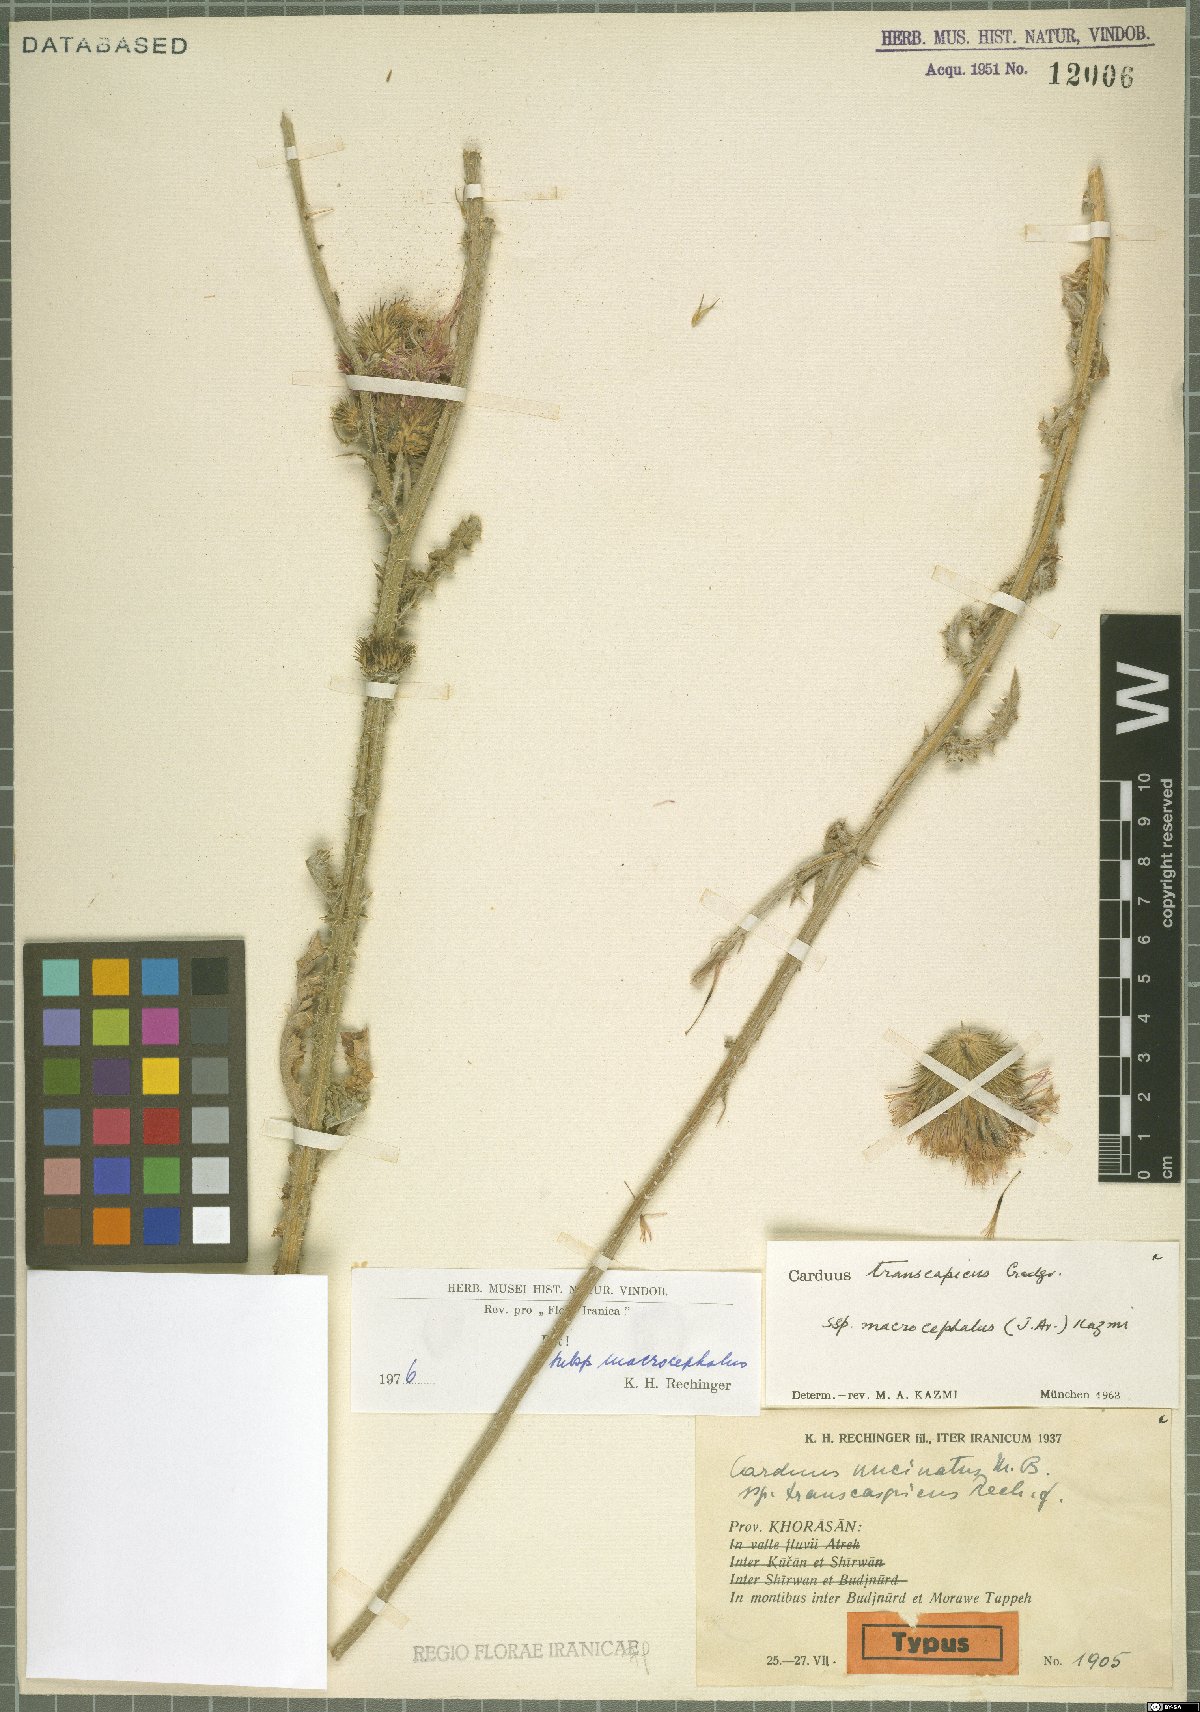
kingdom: Plantae
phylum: Tracheophyta
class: Magnoliopsida
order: Asterales
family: Asteraceae
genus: Carduus
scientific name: Carduus transcaspicus
